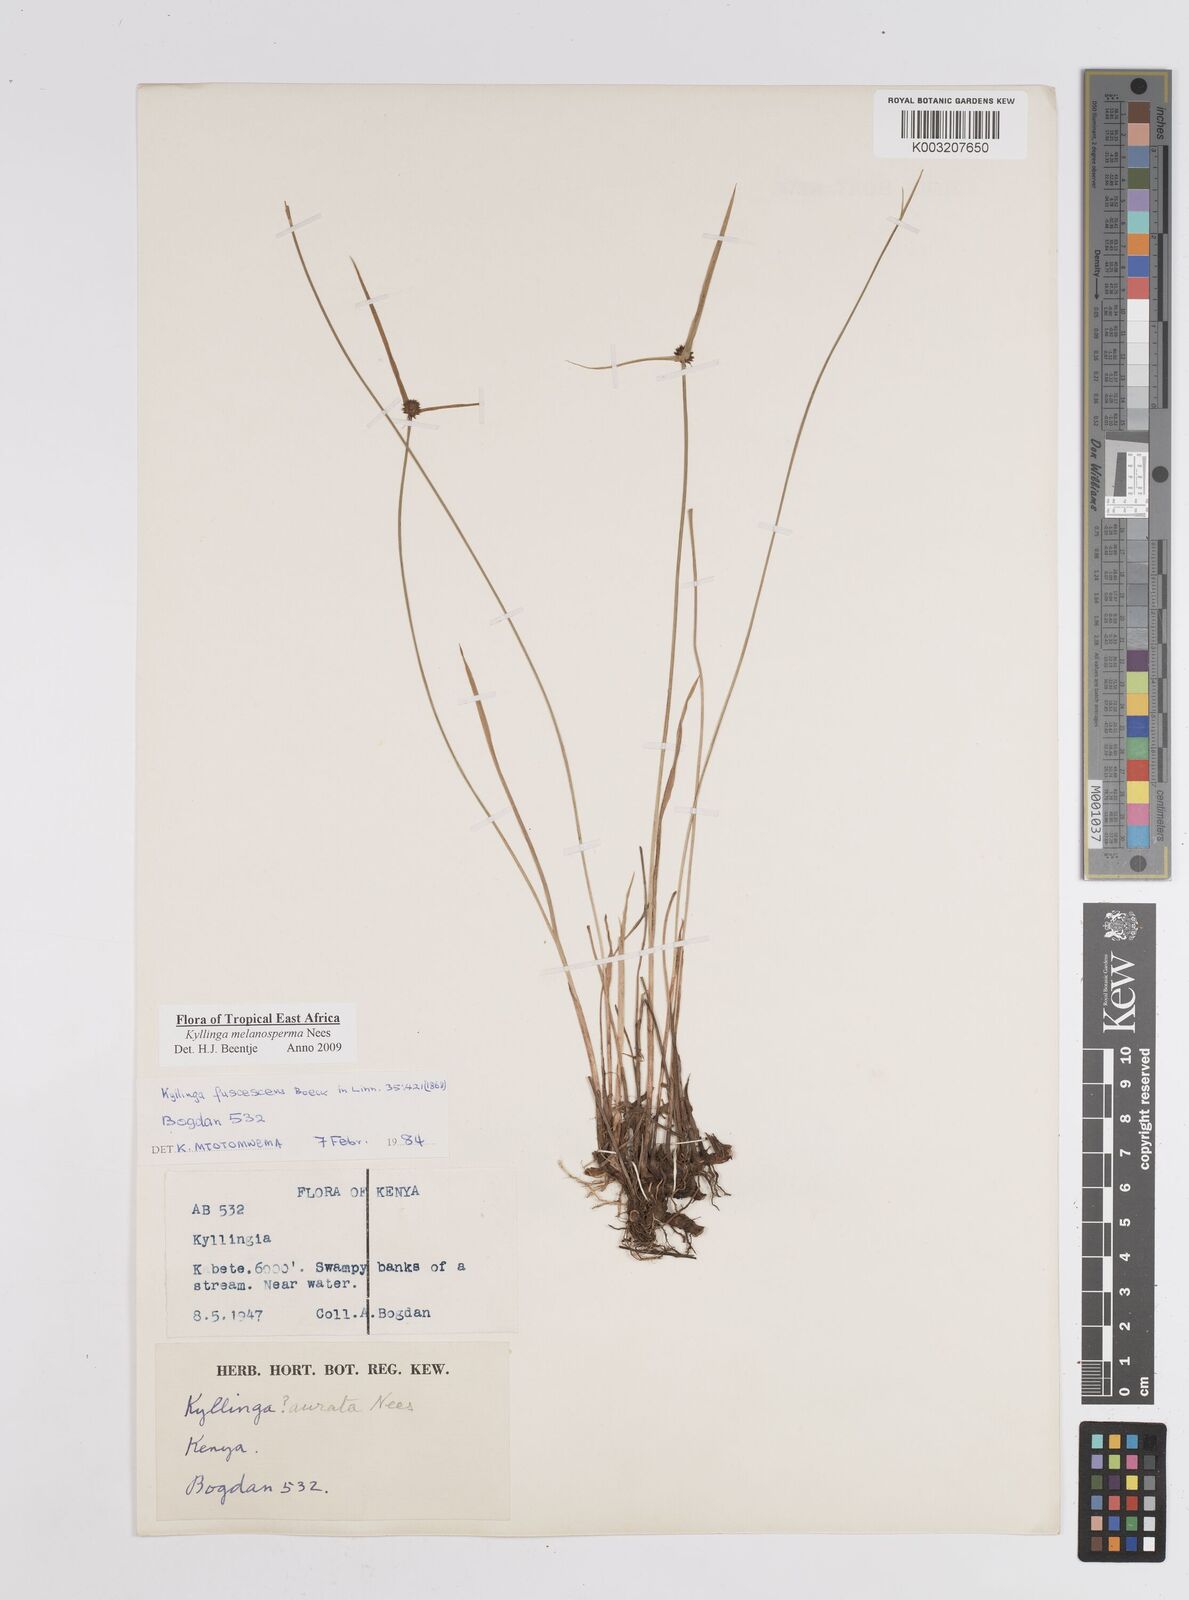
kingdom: Plantae
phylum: Tracheophyta
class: Liliopsida
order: Poales
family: Cyperaceae
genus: Cyperus
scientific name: Cyperus melanospermus
